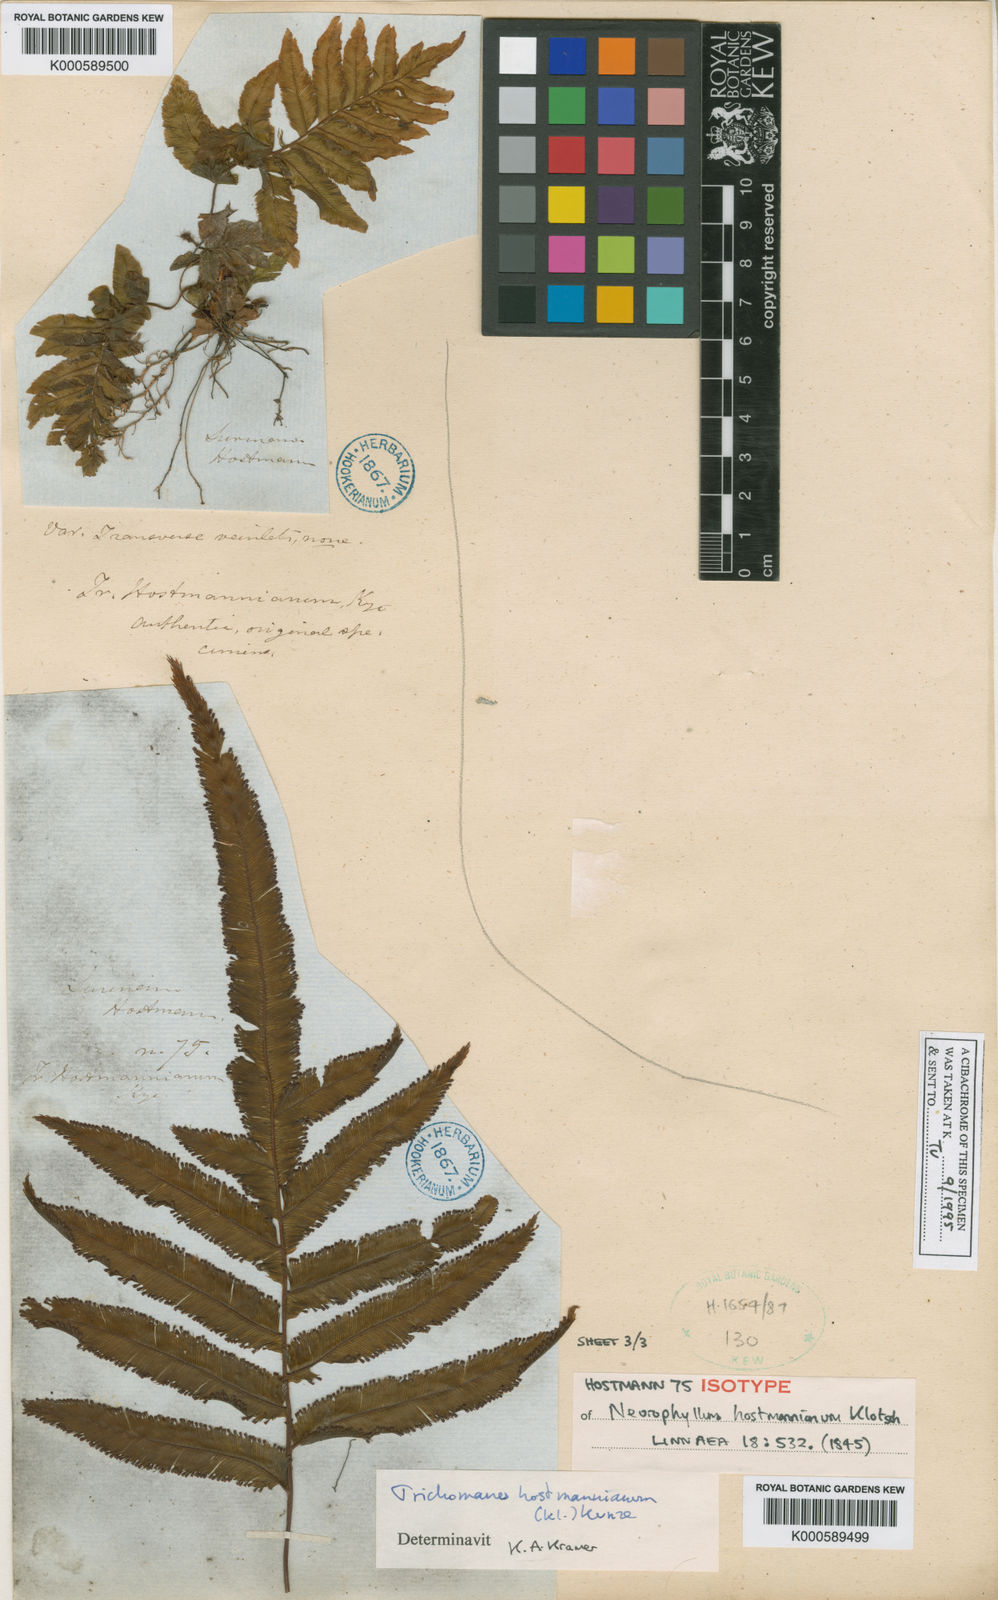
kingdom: Plantae
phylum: Tracheophyta
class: Polypodiopsida
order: Hymenophyllales
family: Hymenophyllaceae
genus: Trichomanes
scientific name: Trichomanes hostmannianum
